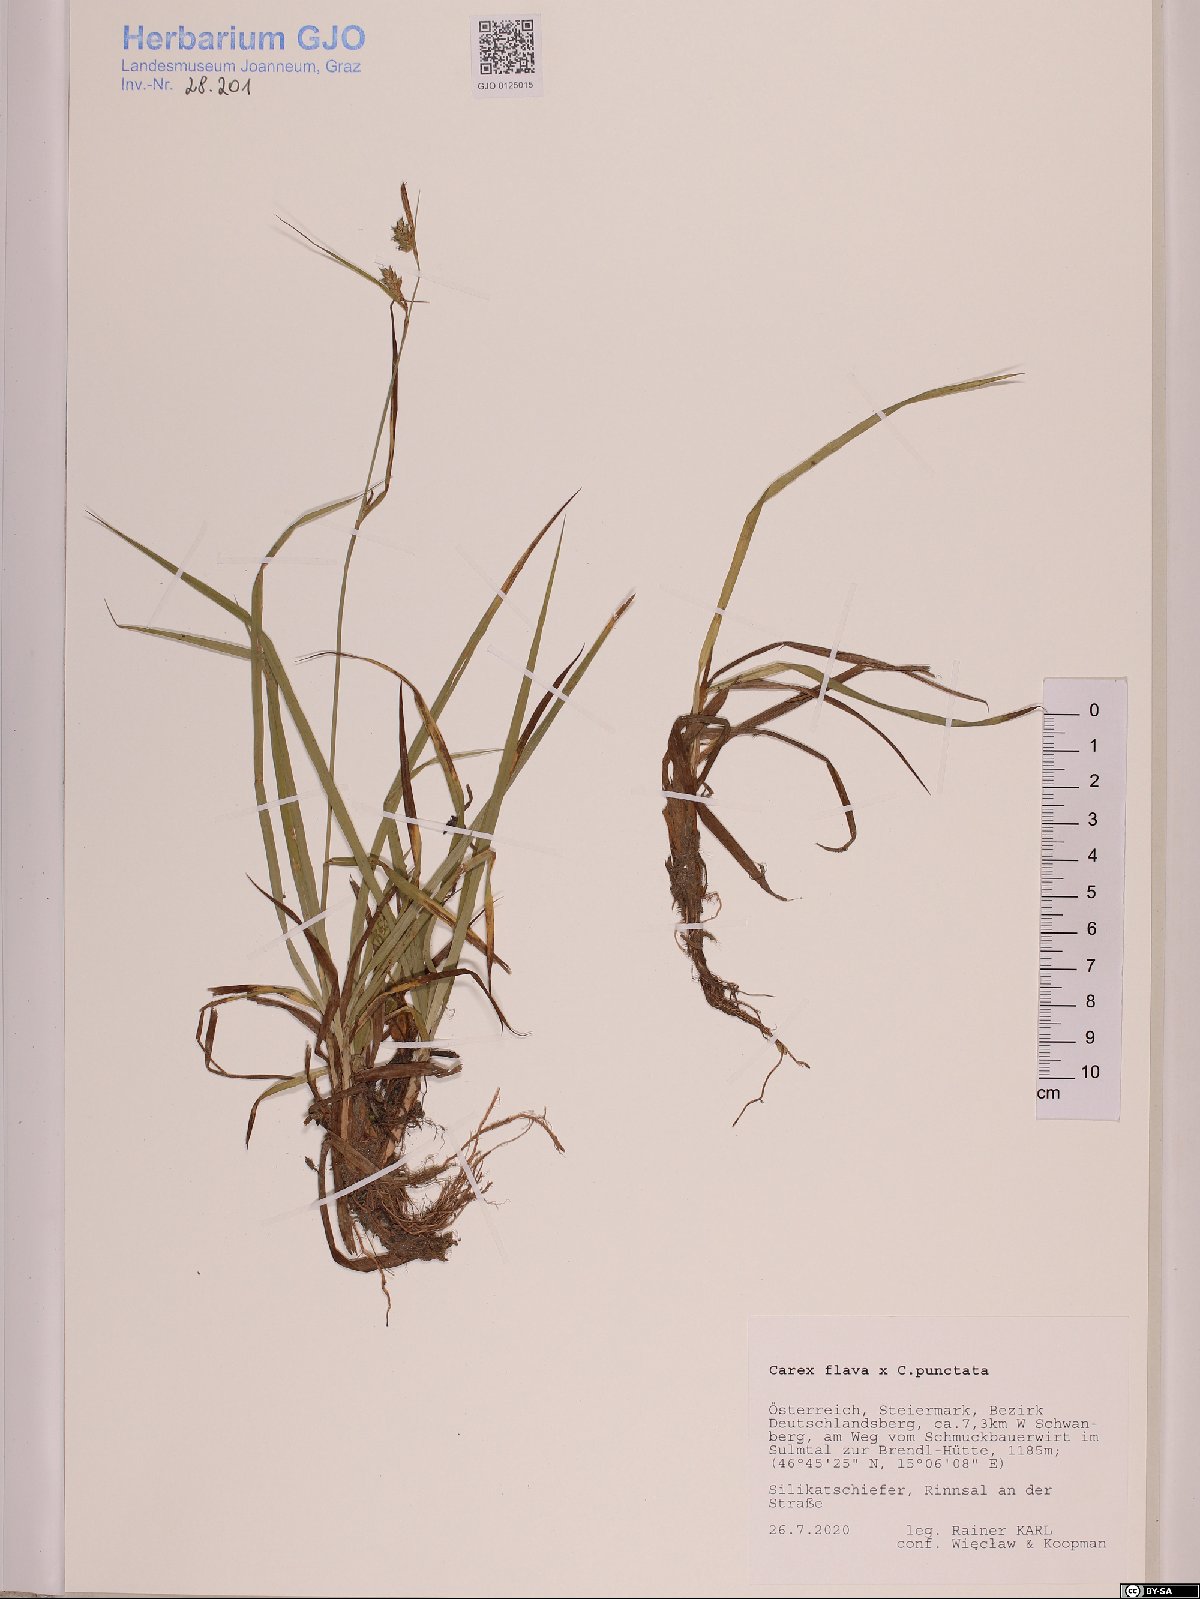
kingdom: Plantae
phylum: Tracheophyta
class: Liliopsida
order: Poales
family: Cyperaceae
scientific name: Cyperaceae
